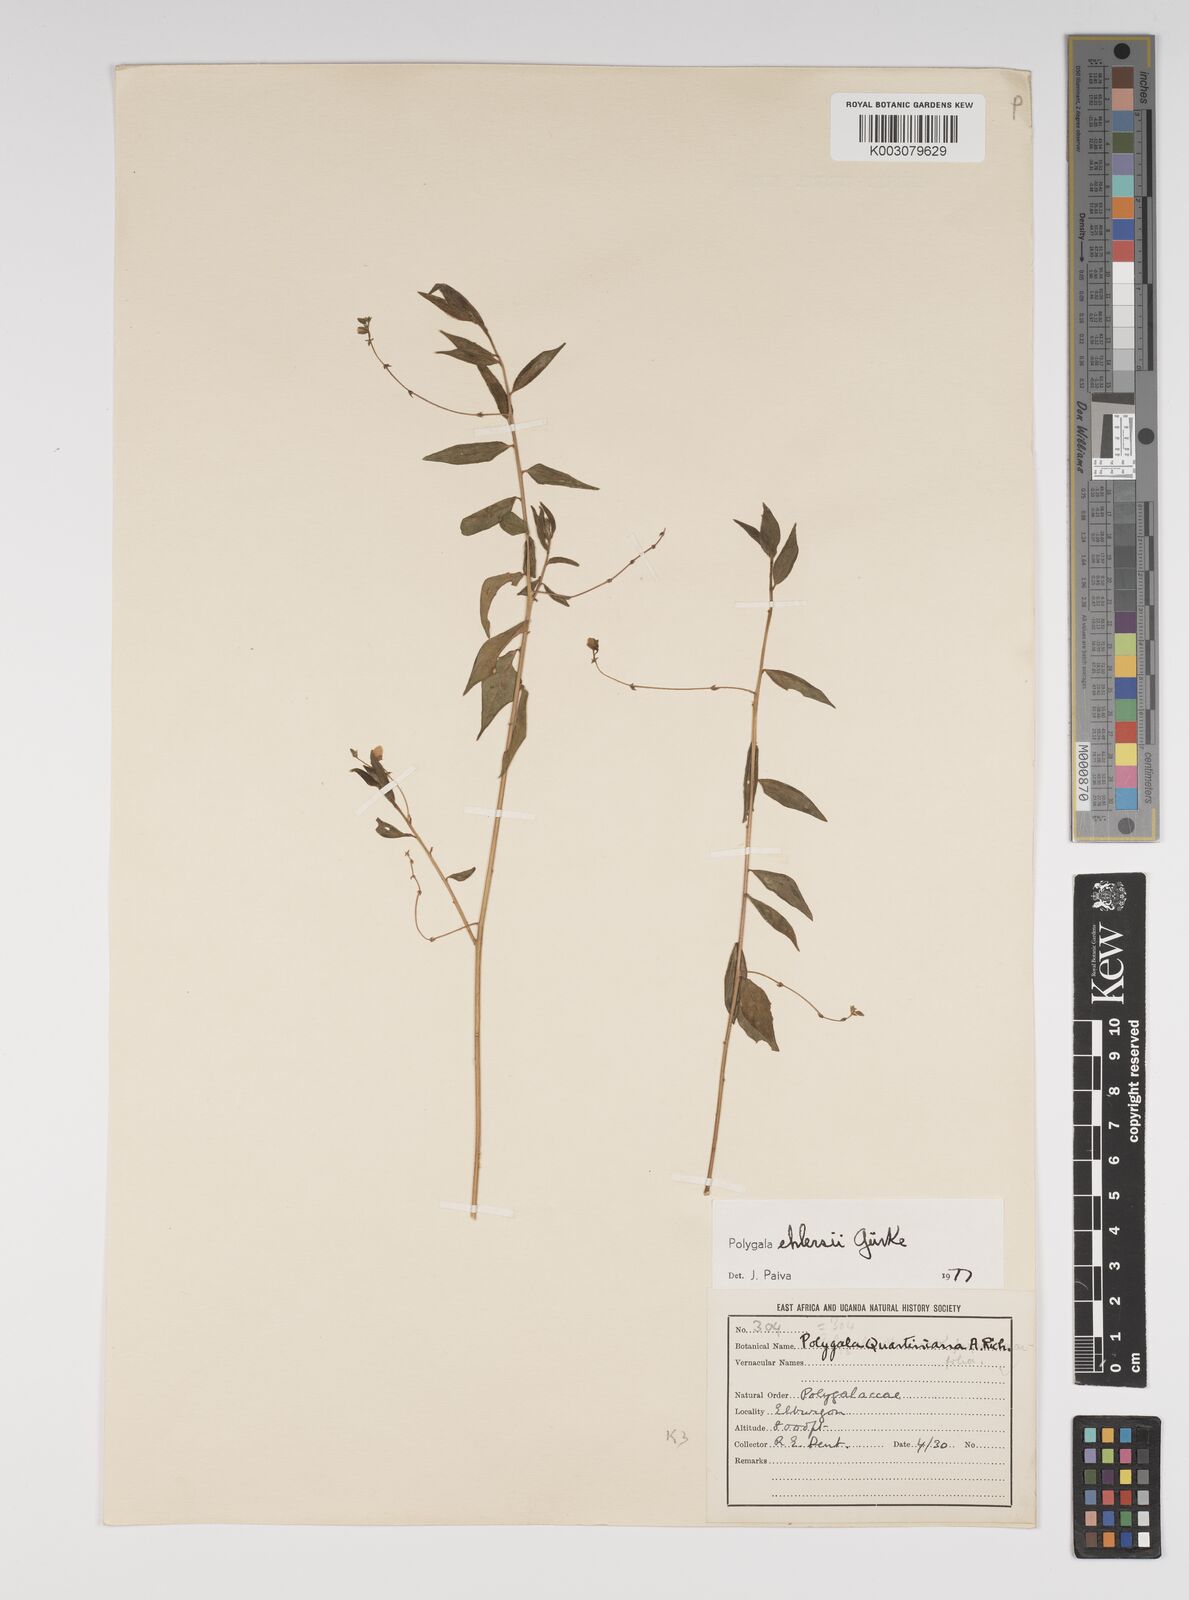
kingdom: Plantae
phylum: Tracheophyta
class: Magnoliopsida
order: Fabales
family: Polygalaceae
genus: Polygala
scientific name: Polygala ehlersii
